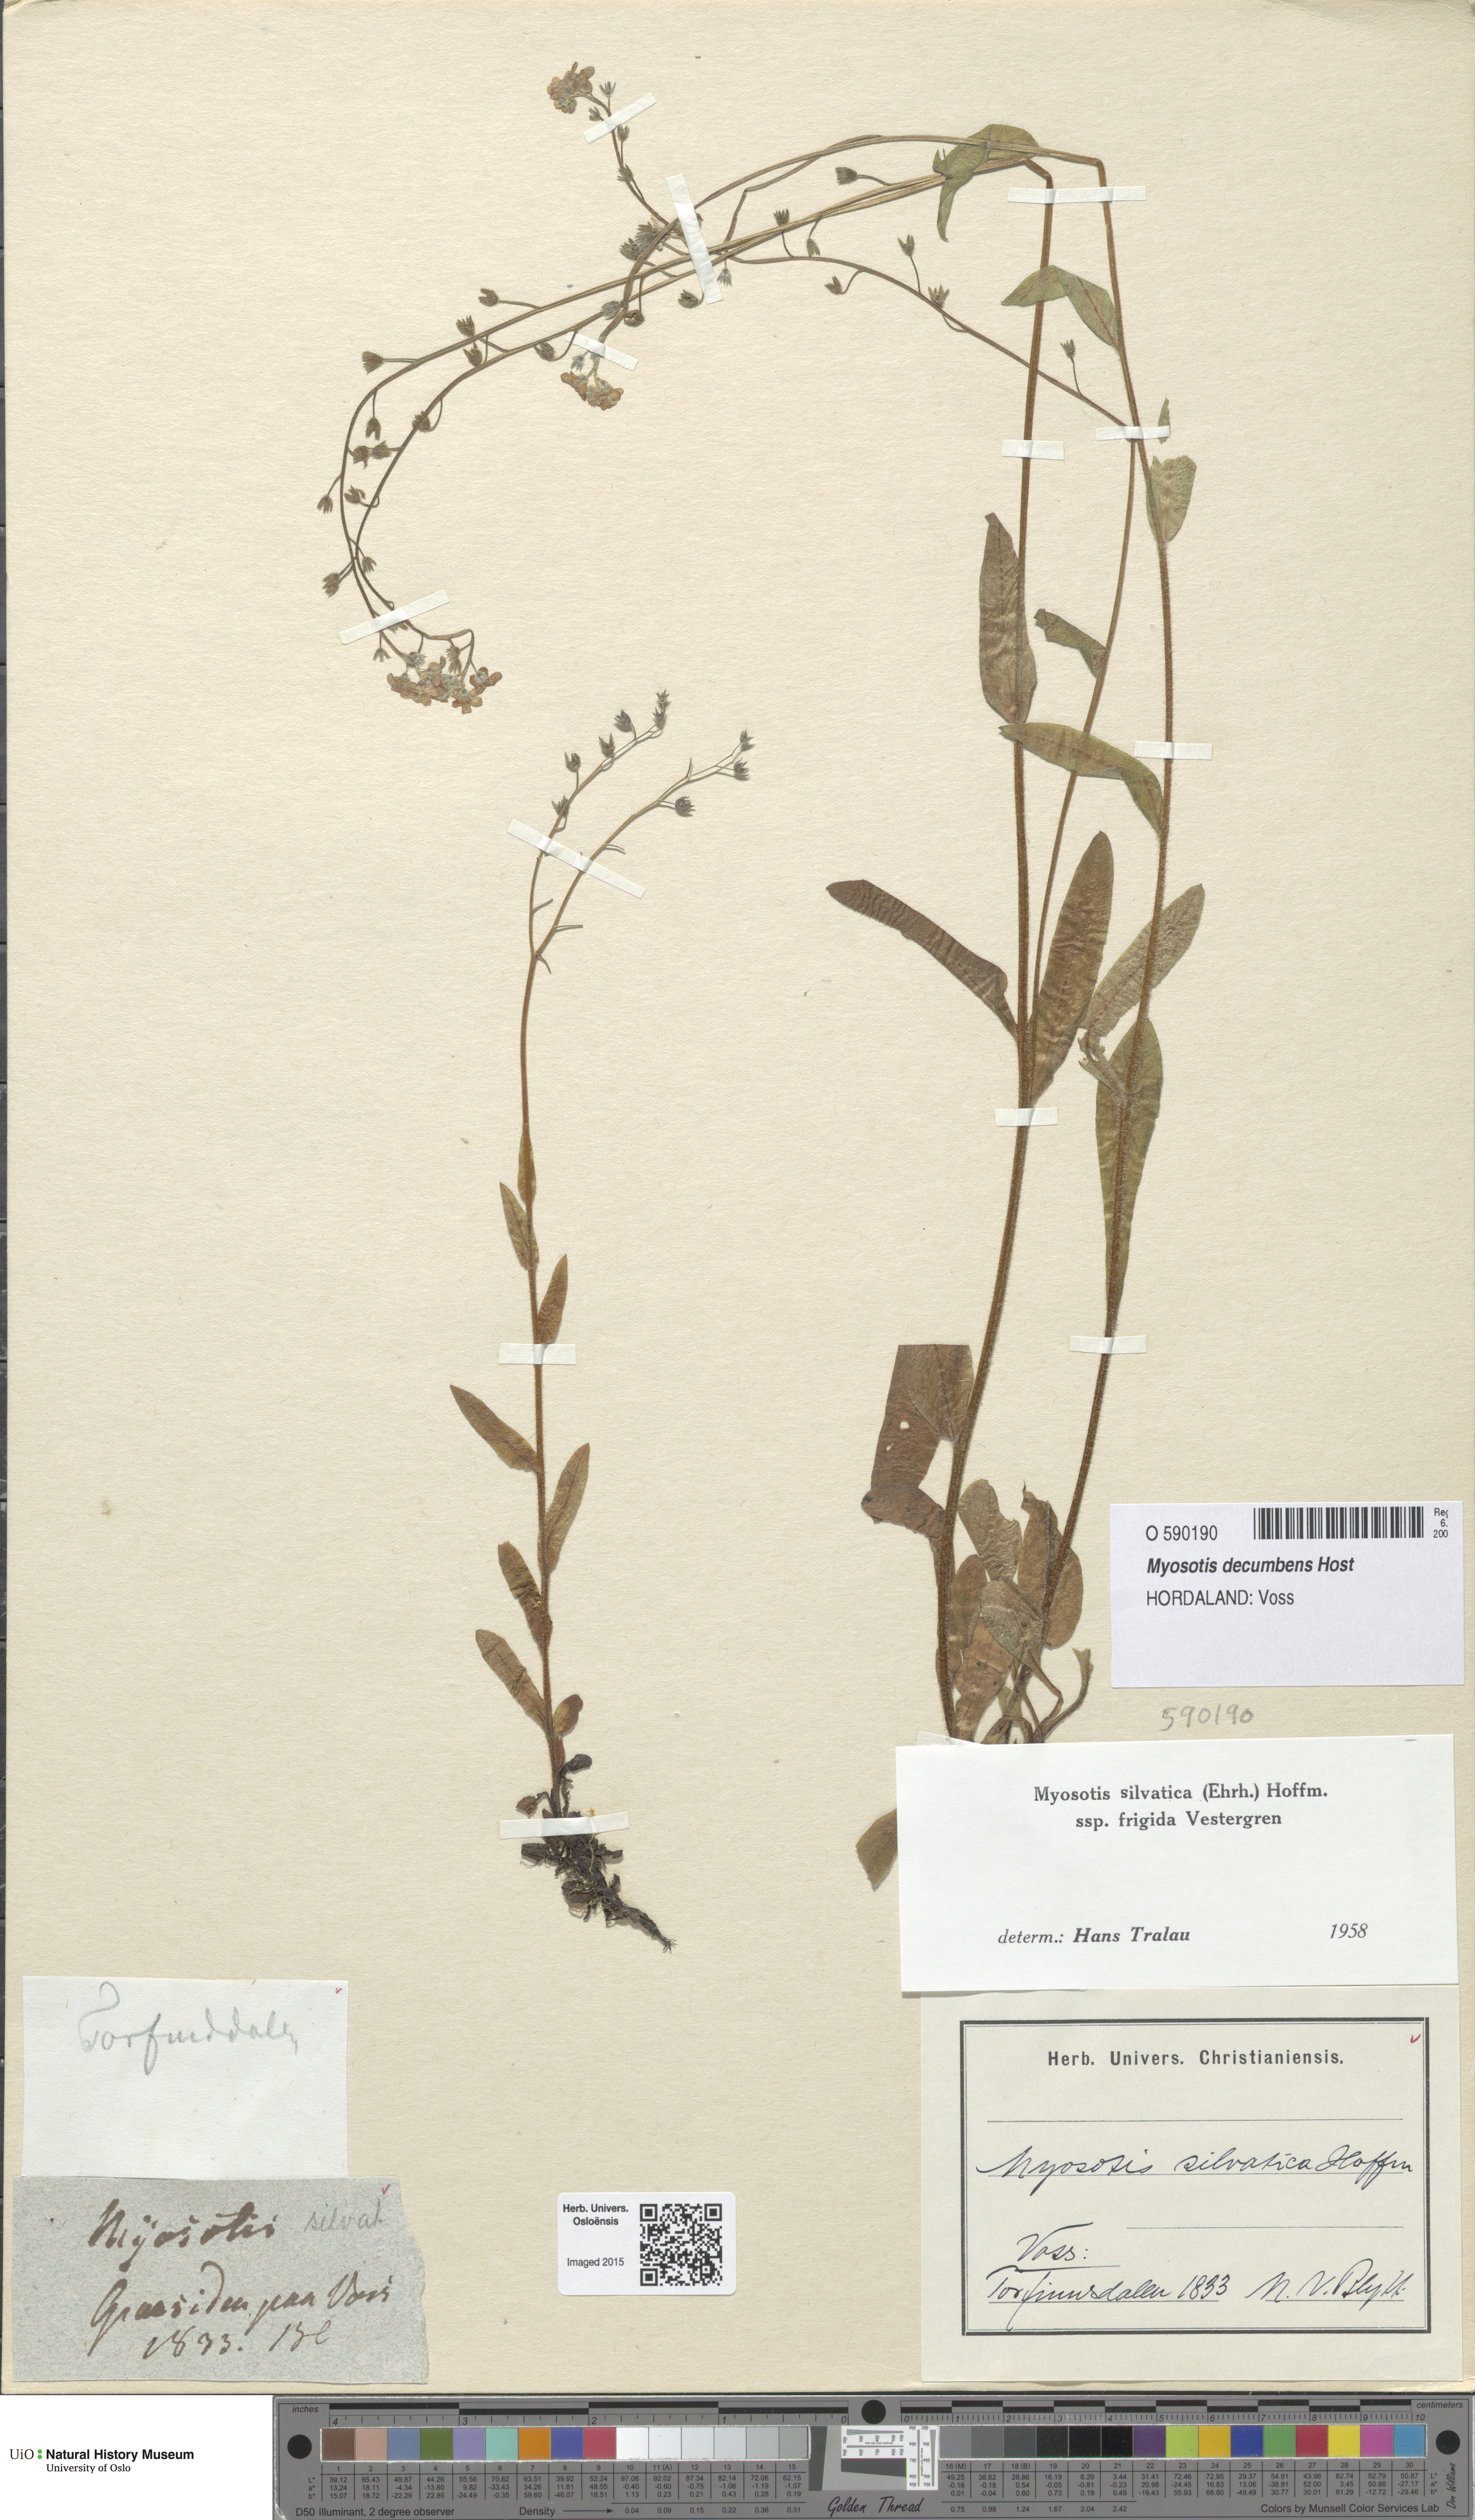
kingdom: Plantae
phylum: Tracheophyta
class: Magnoliopsida
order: Boraginales
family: Boraginaceae
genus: Myosotis
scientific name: Myosotis decumbens
